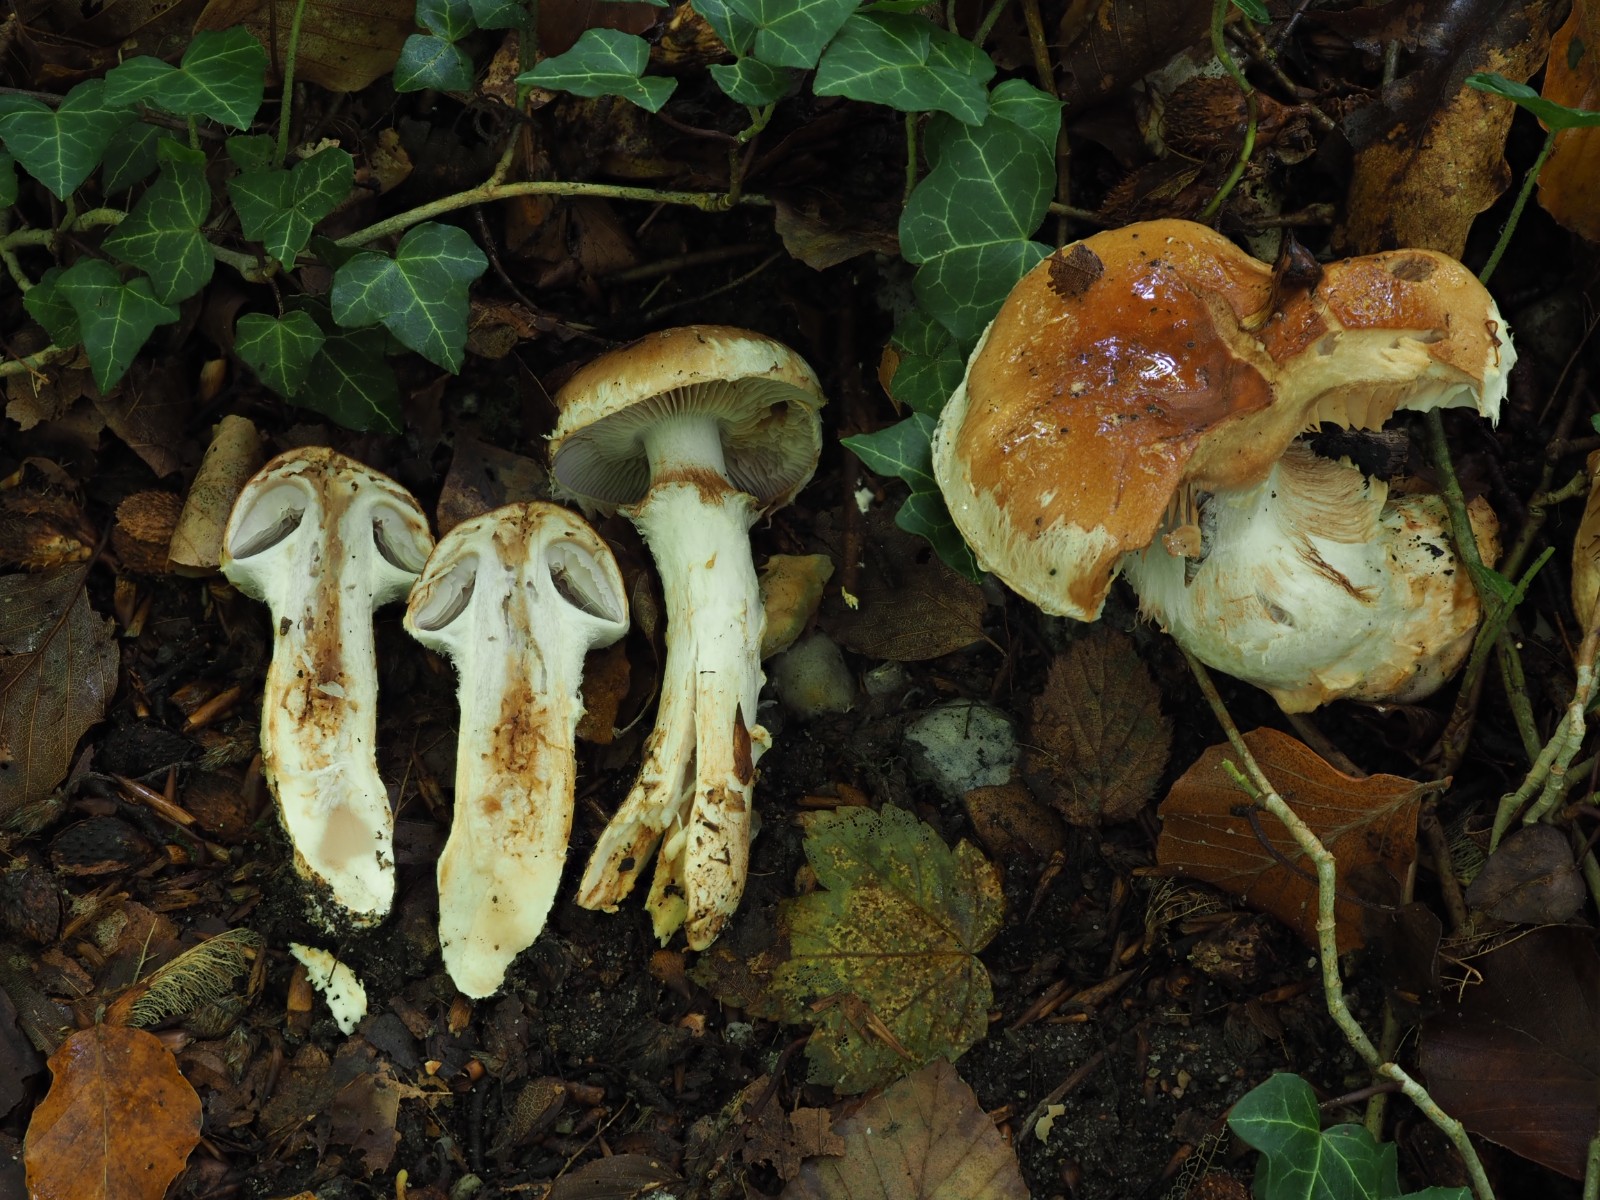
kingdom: Fungi
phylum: Basidiomycota
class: Agaricomycetes
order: Agaricales
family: Cortinariaceae
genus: Phlegmacium
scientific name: Phlegmacium vulpinum
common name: ringbæltet slørhat
